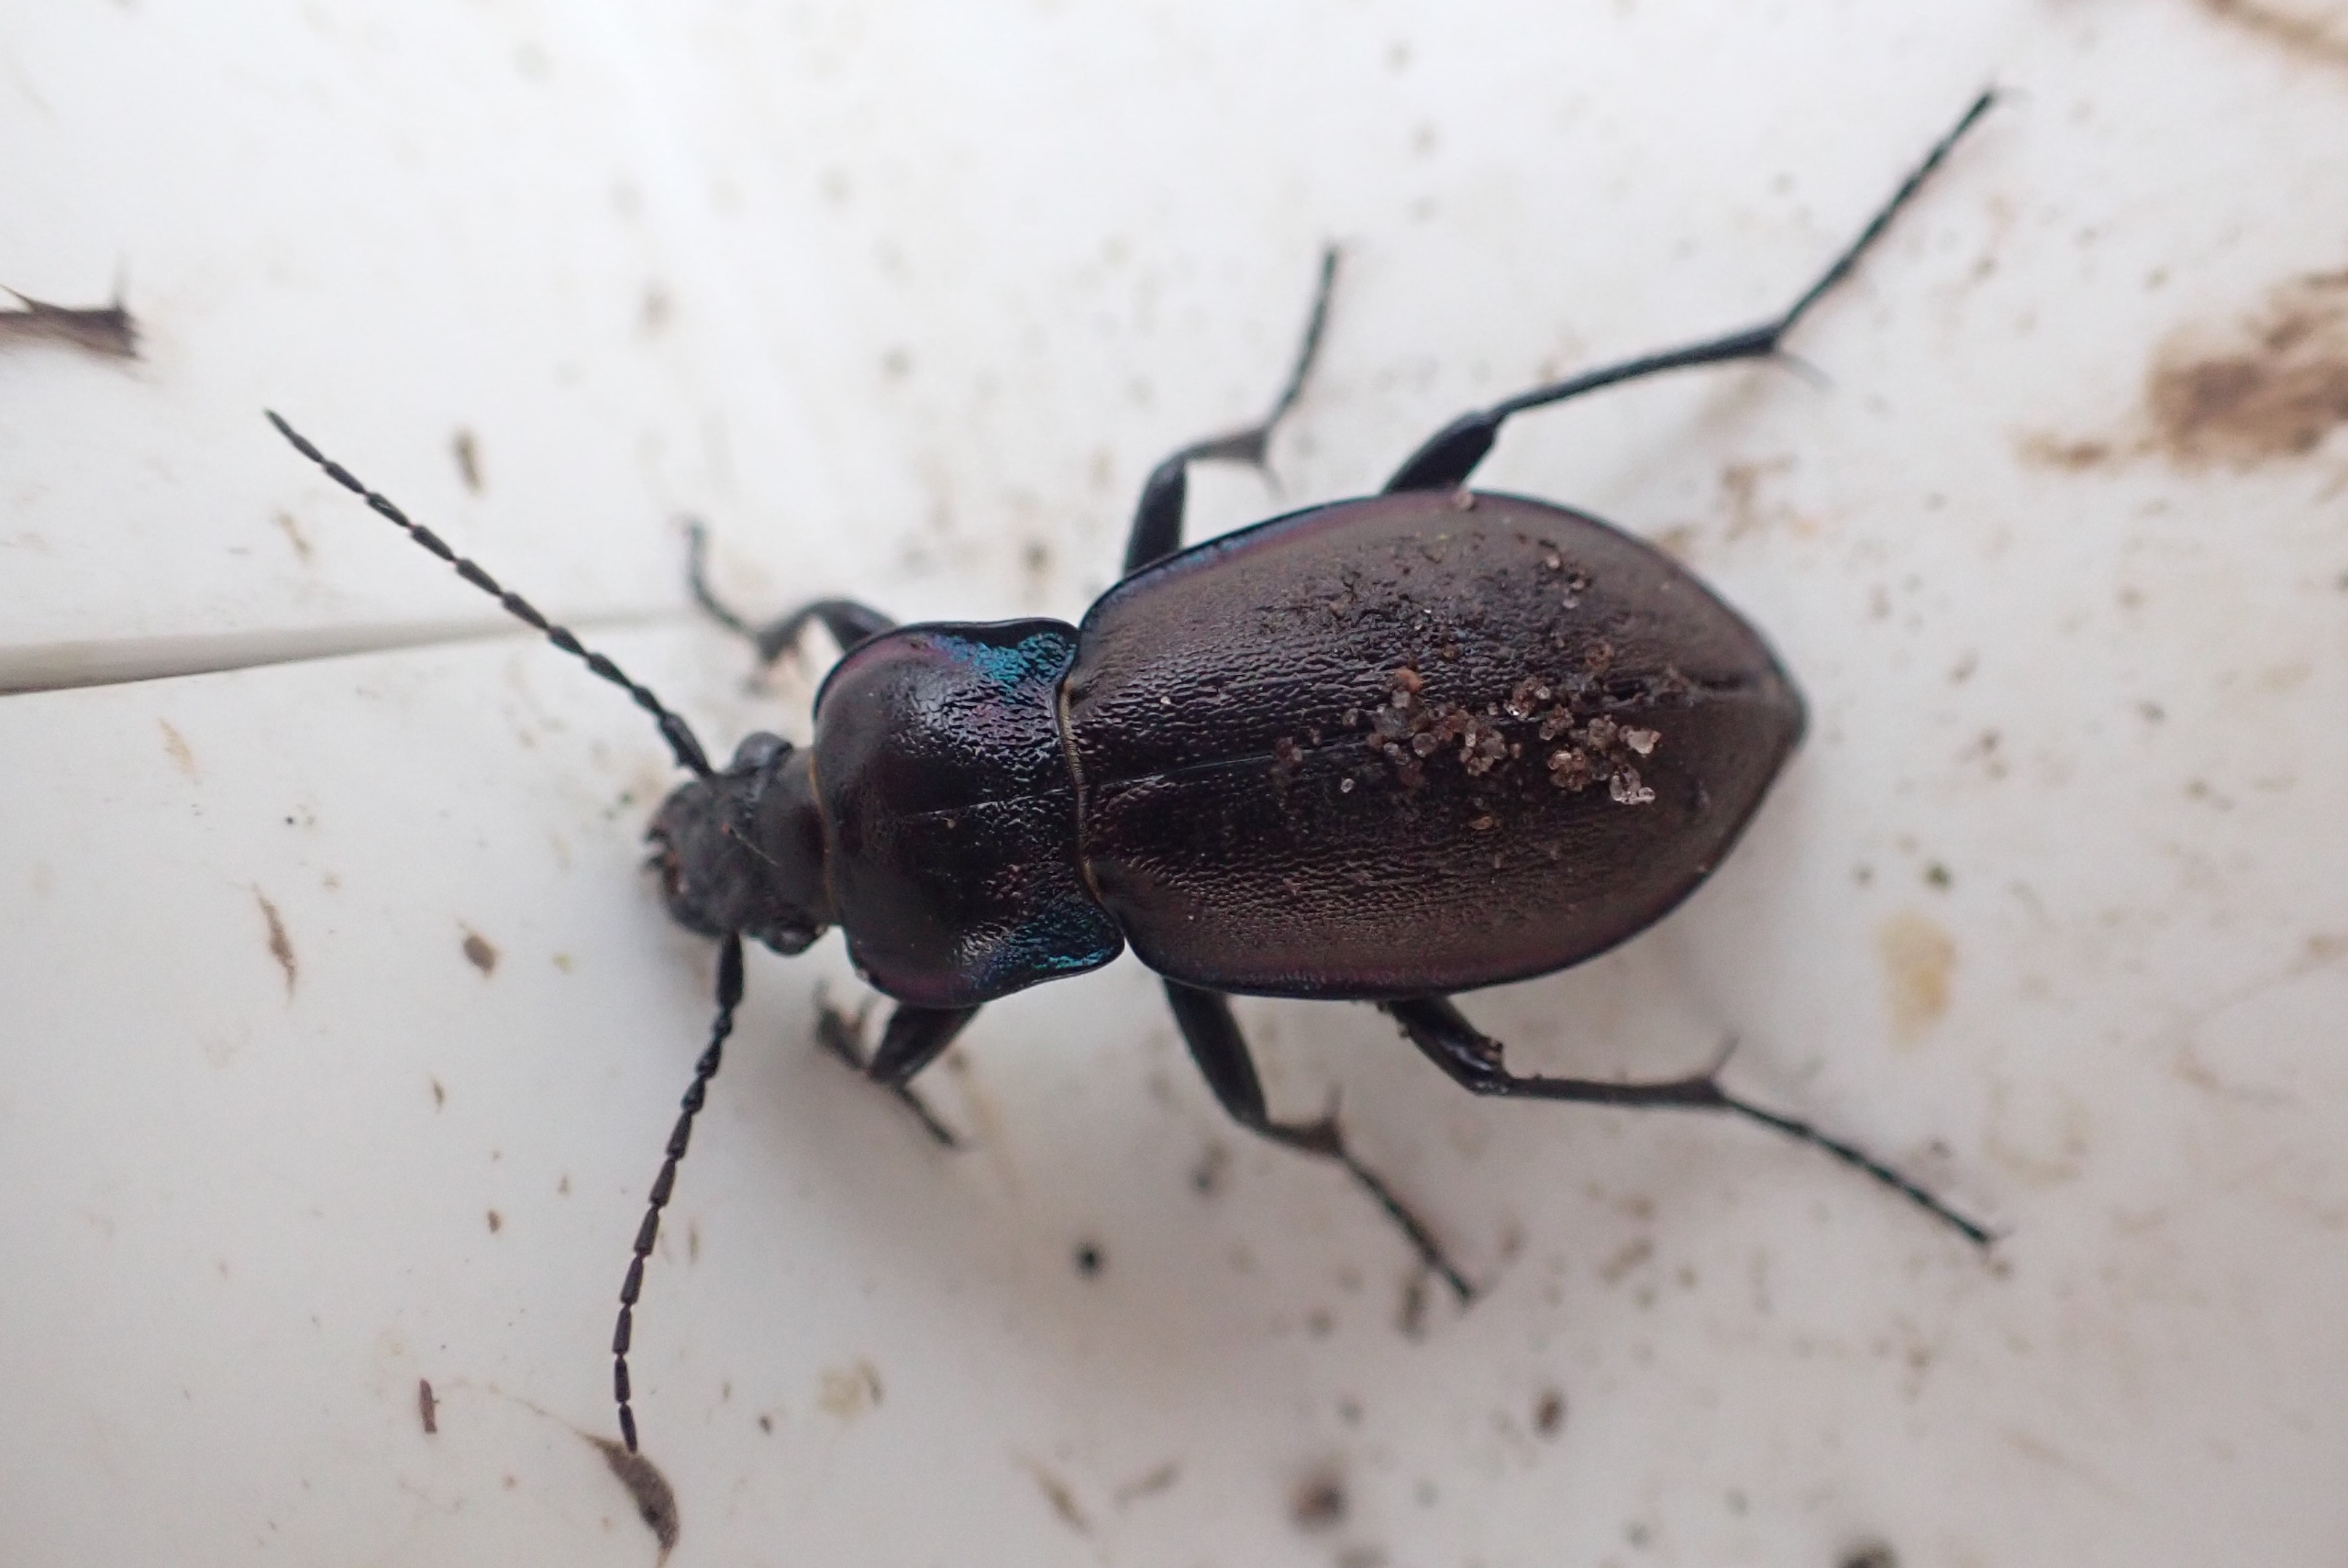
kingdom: Animalia
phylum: Arthropoda
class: Insecta
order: Coleoptera
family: Carabidae
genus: Carabus
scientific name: Carabus nemoralis
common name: Kratløber
